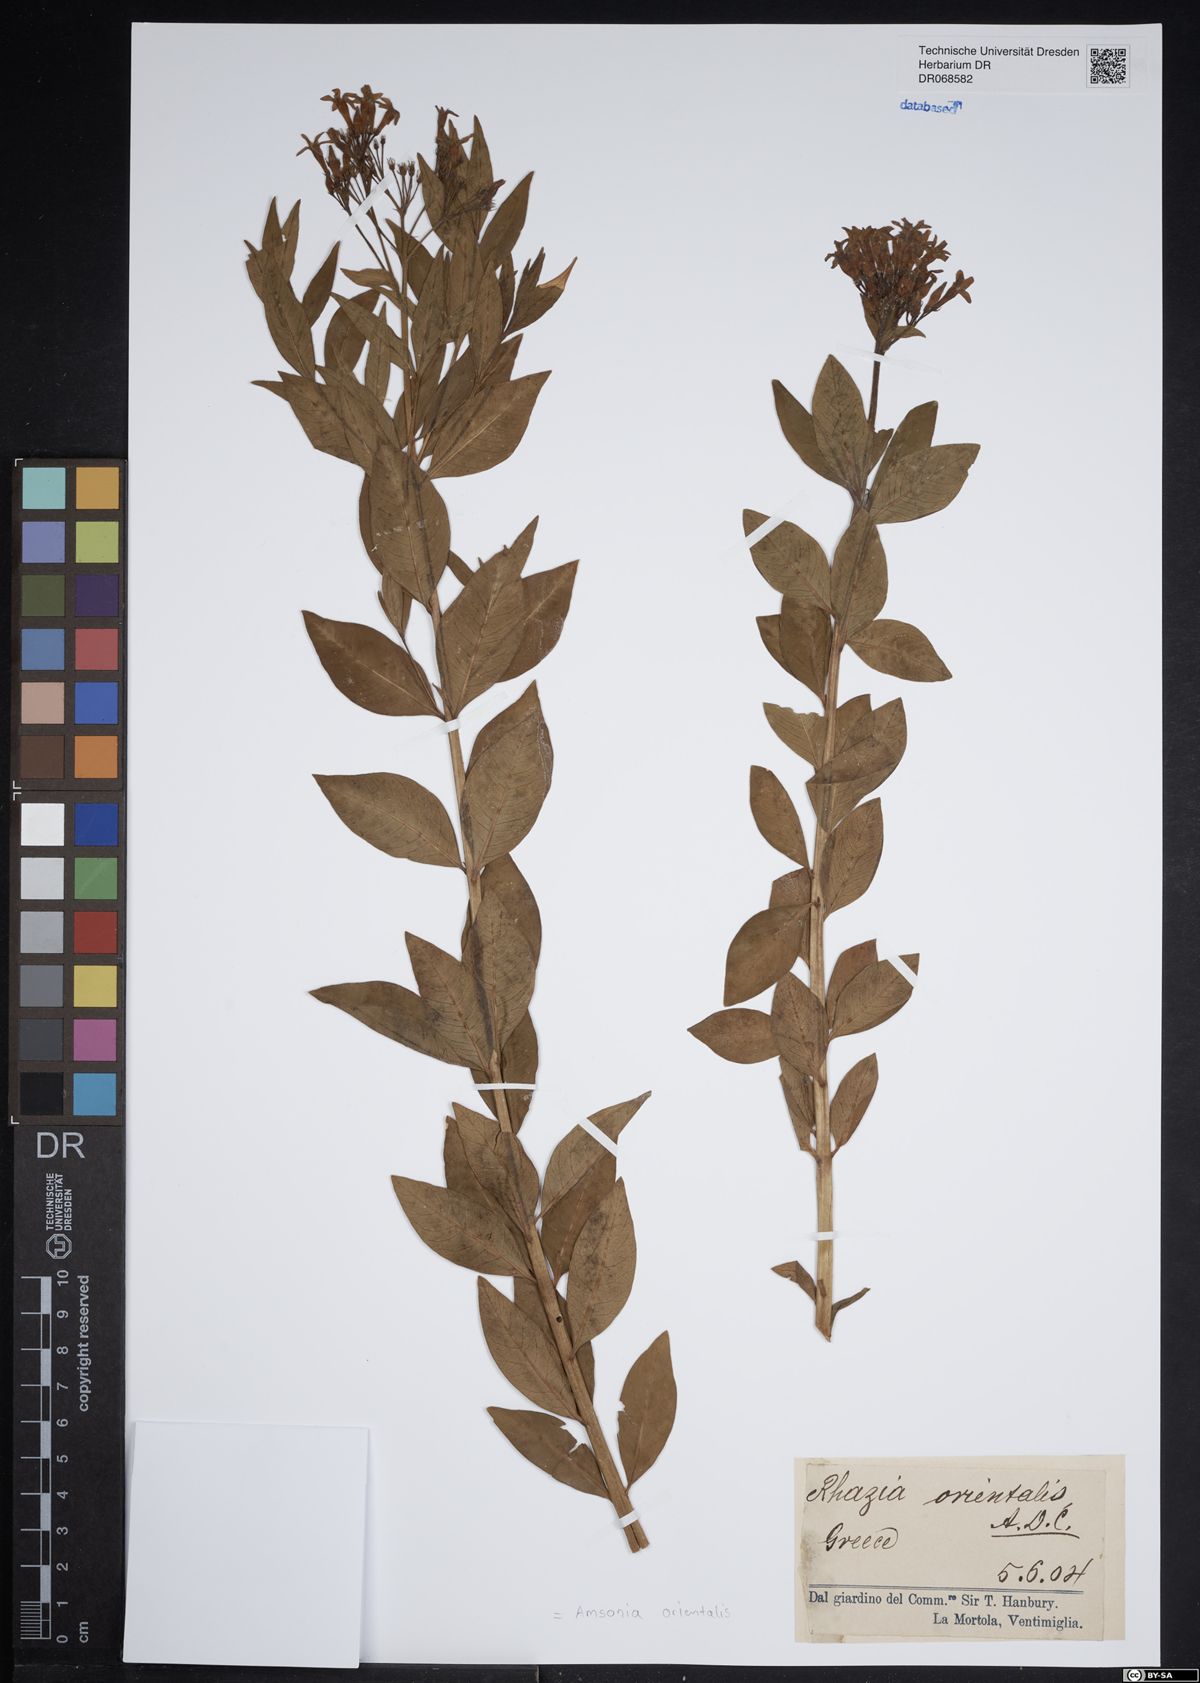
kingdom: Plantae
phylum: Tracheophyta
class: Magnoliopsida
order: Gentianales
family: Apocynaceae
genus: Amsonia
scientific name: Amsonia orientalis
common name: Blue star
